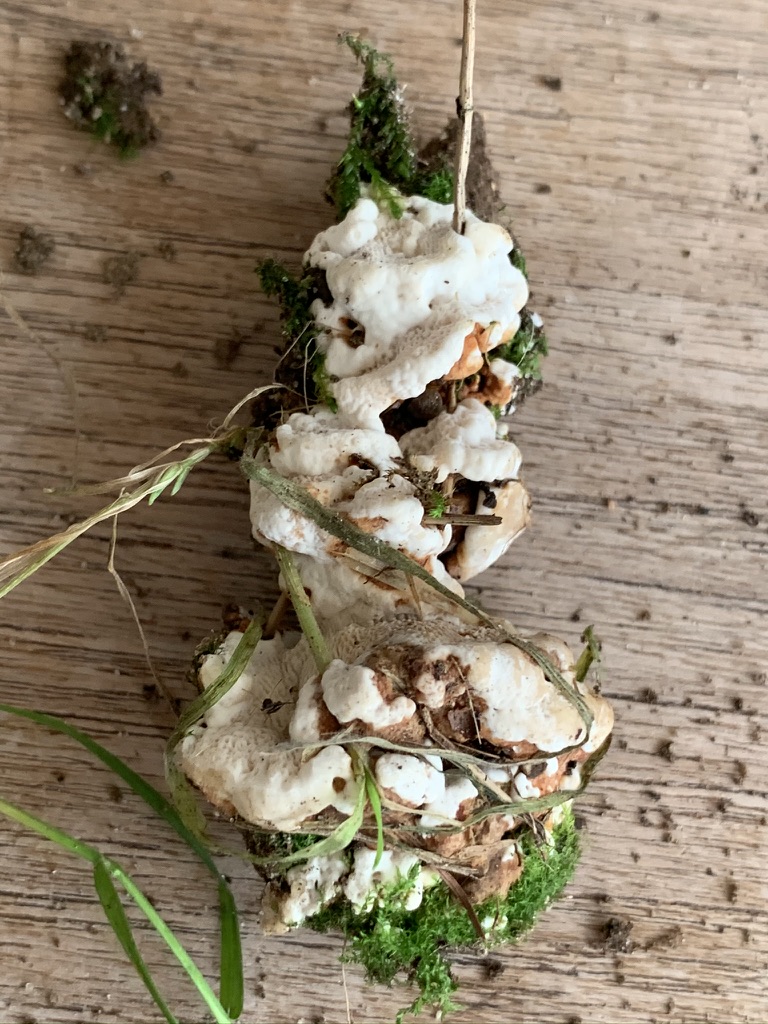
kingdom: Fungi
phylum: Basidiomycota
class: Agaricomycetes
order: Russulales
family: Bondarzewiaceae
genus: Heterobasidion
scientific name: Heterobasidion annosum
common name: almindelig rodfordærver
